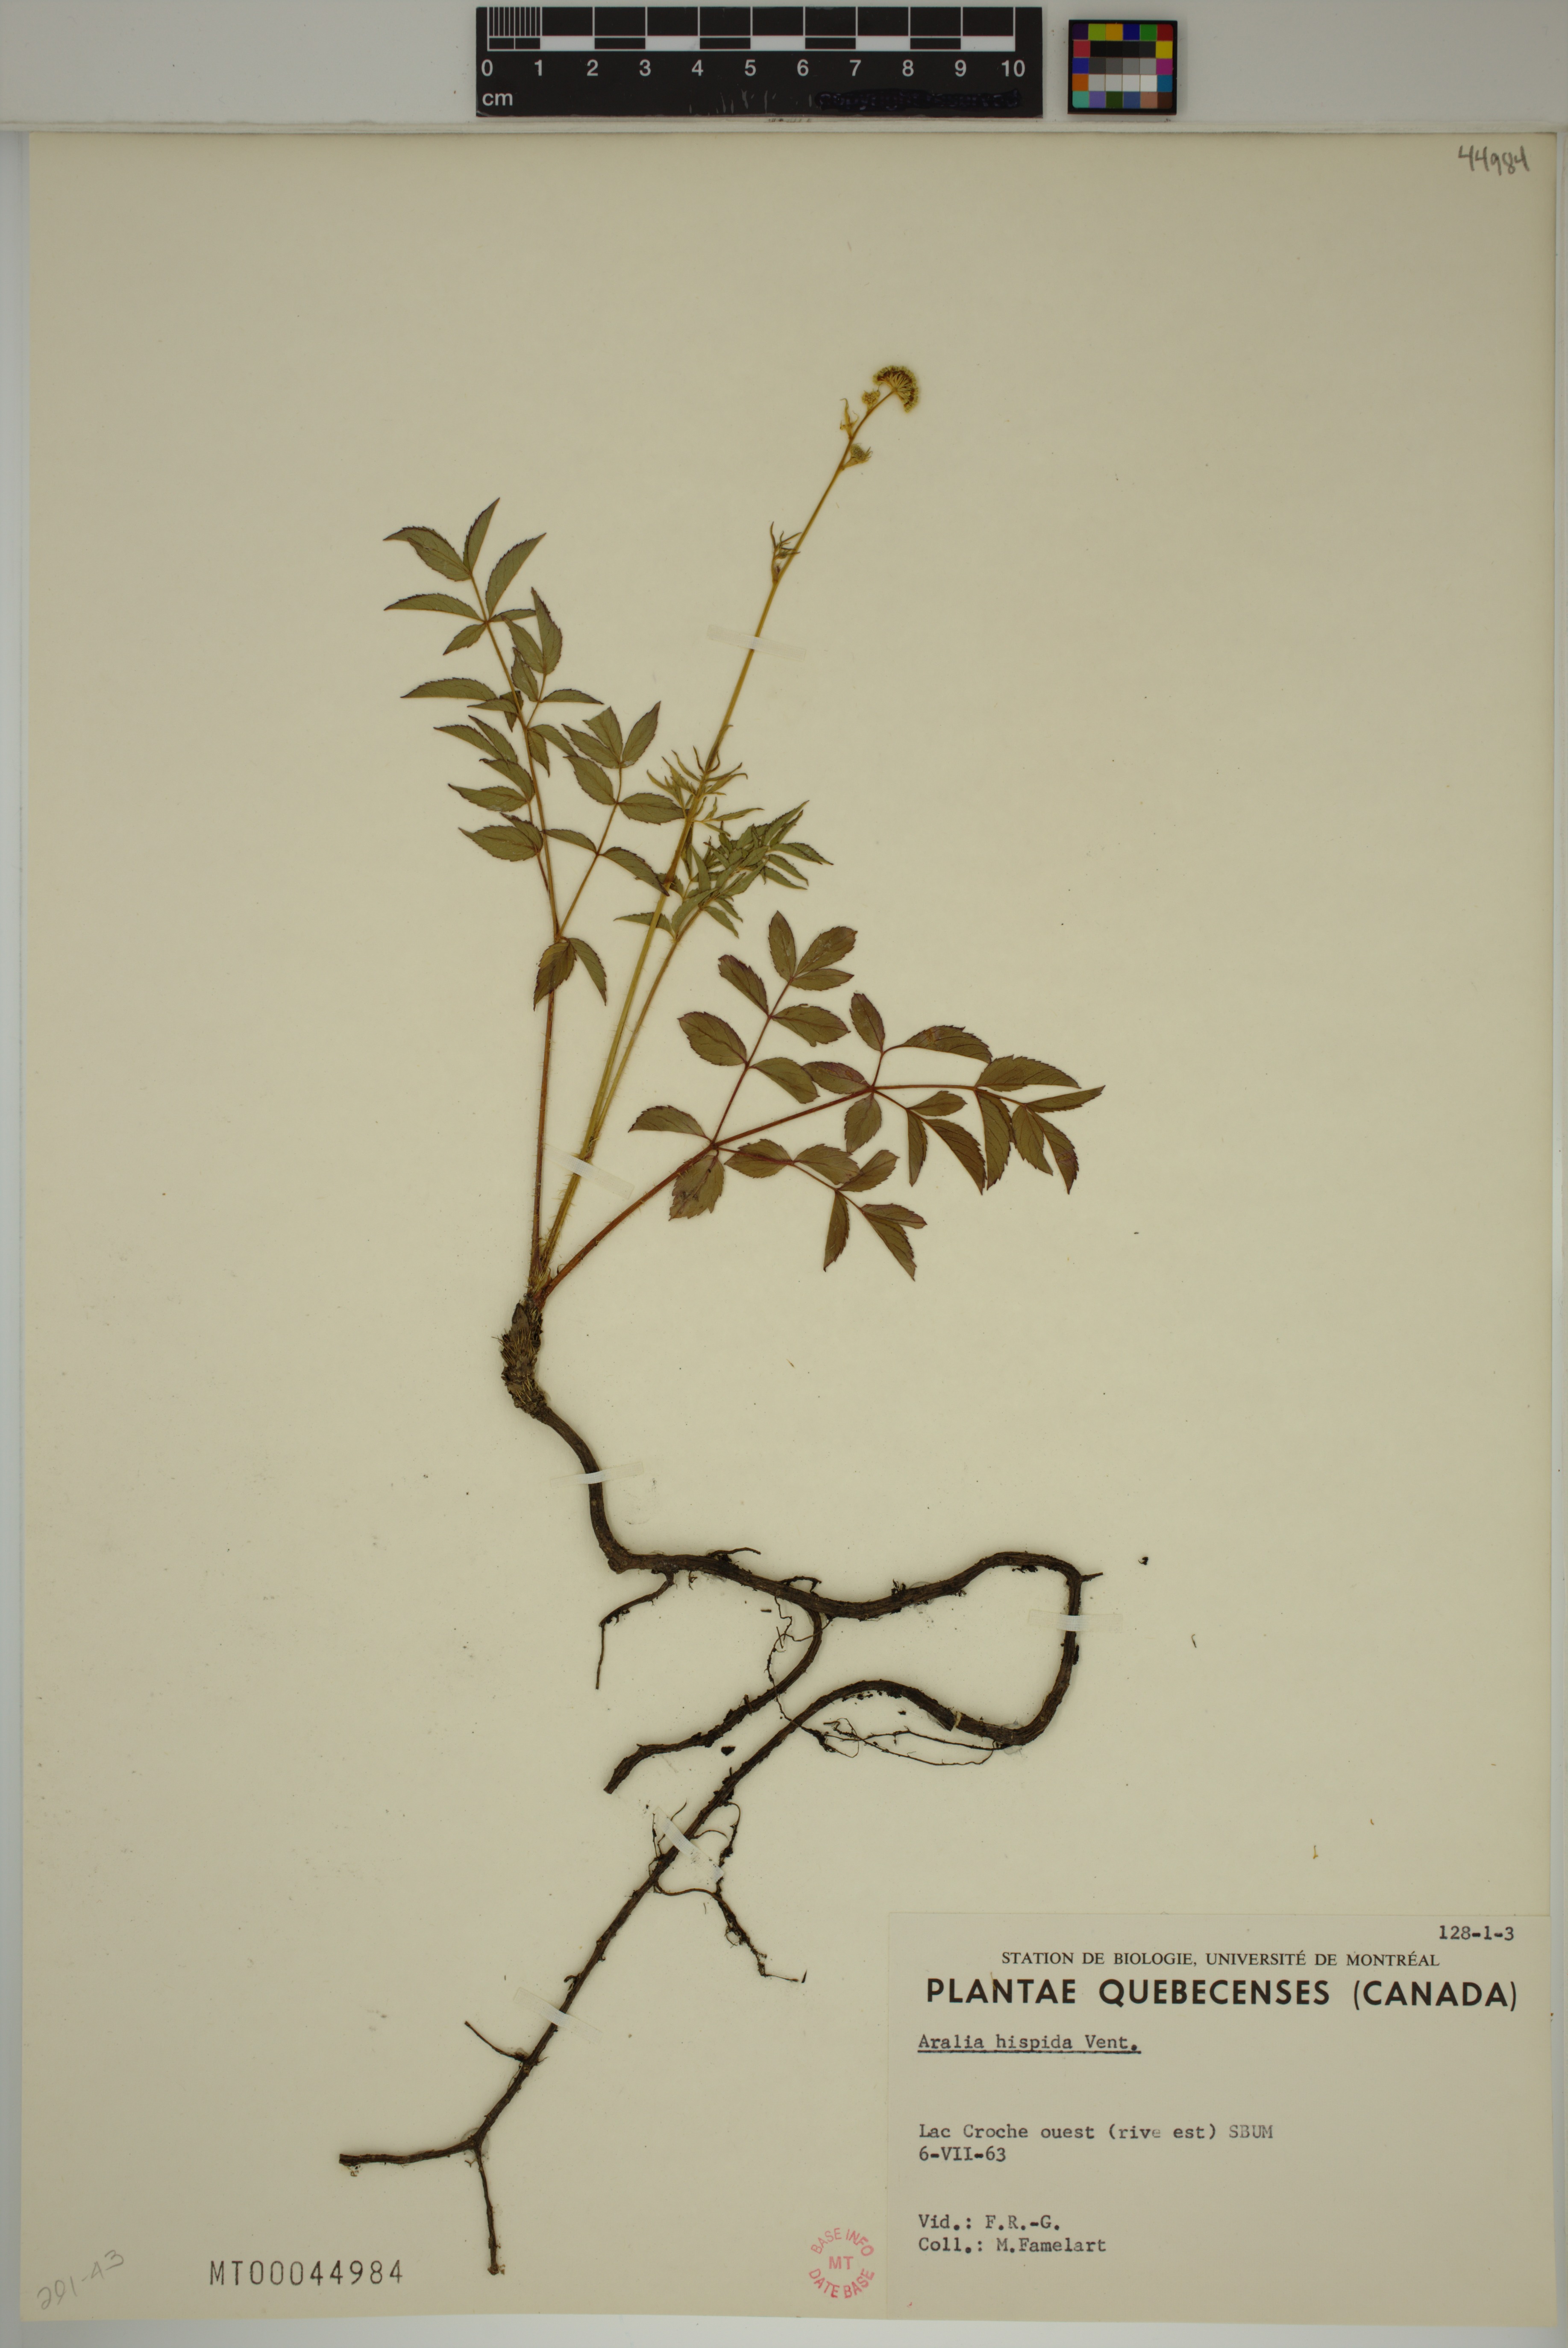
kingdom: Plantae
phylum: Tracheophyta
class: Magnoliopsida
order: Apiales
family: Araliaceae
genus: Aralia
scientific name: Aralia hispida
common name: Bristly sarsaparilla
